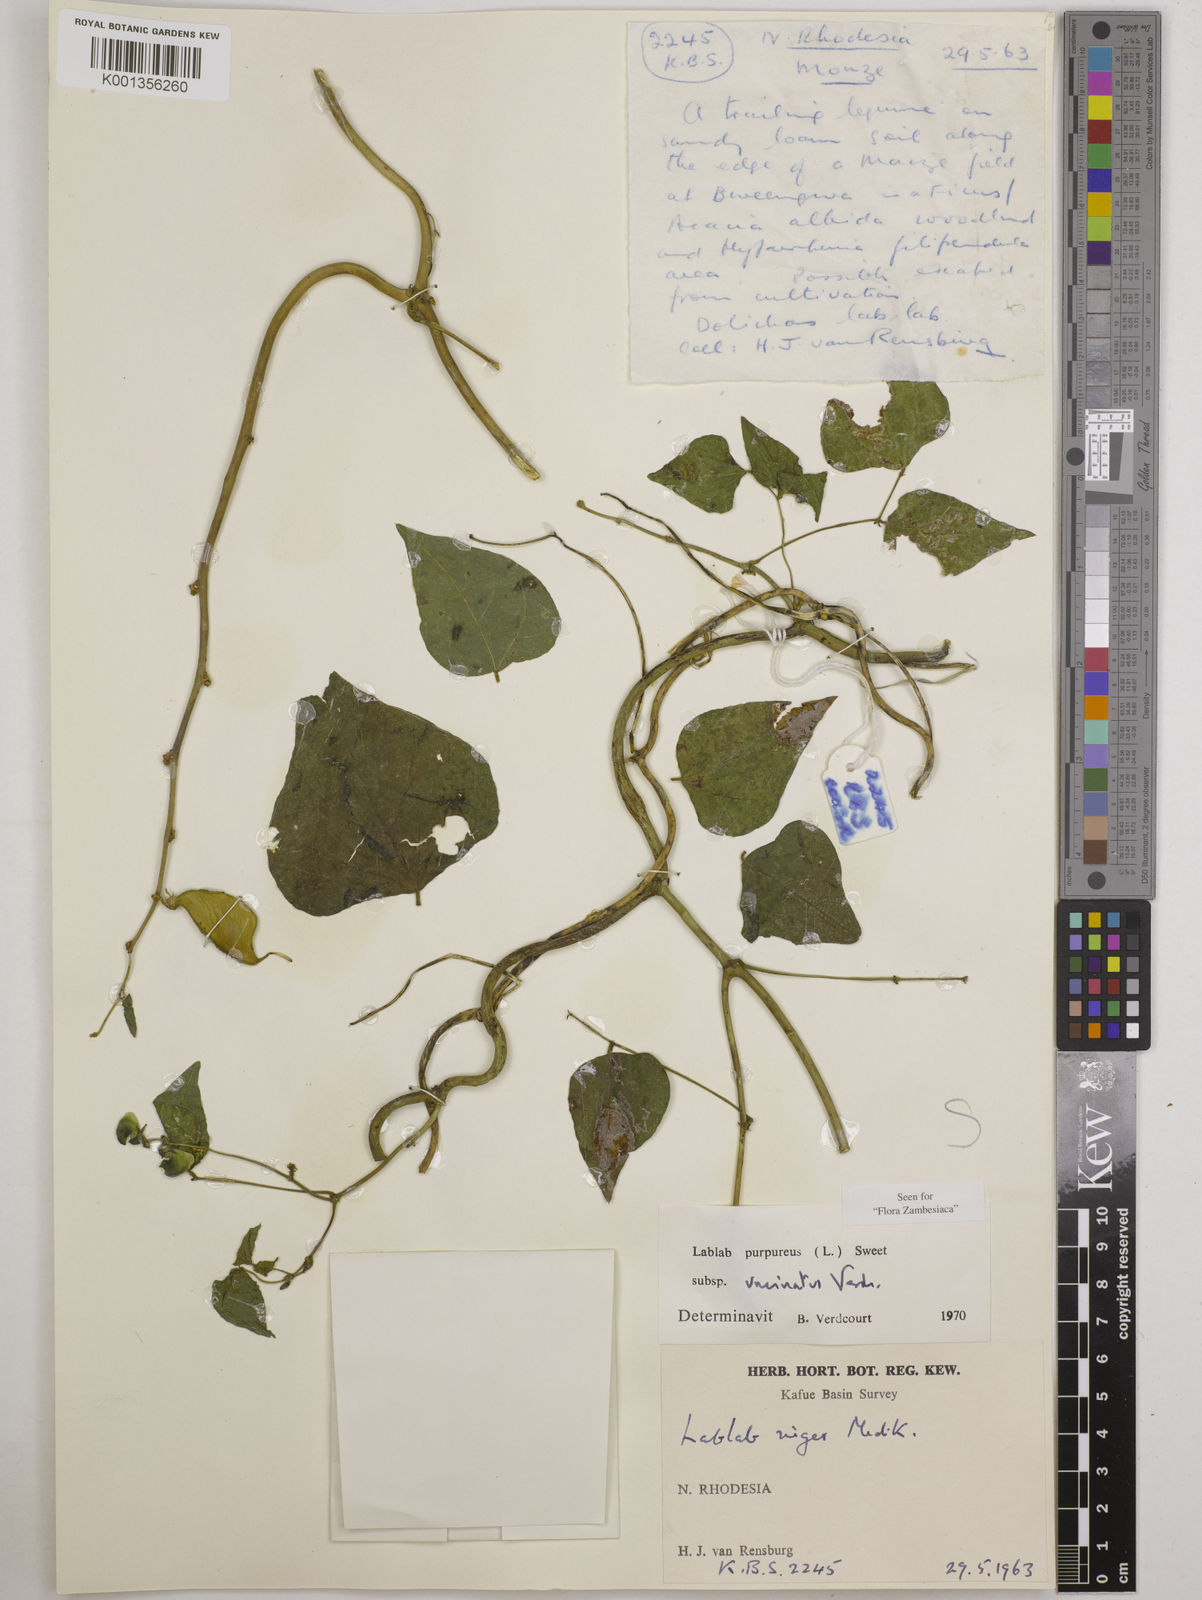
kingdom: Plantae
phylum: Tracheophyta
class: Magnoliopsida
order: Fabales
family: Fabaceae
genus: Lablab
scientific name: Lablab purpureus
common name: Lablab-bean
